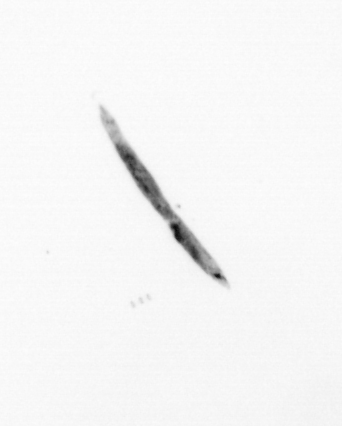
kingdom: Bacteria
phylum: Cyanobacteria
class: Cyanobacteriia
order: Cyanobacteriales
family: Microcoleaceae
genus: Trichodesmium
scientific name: Trichodesmium
